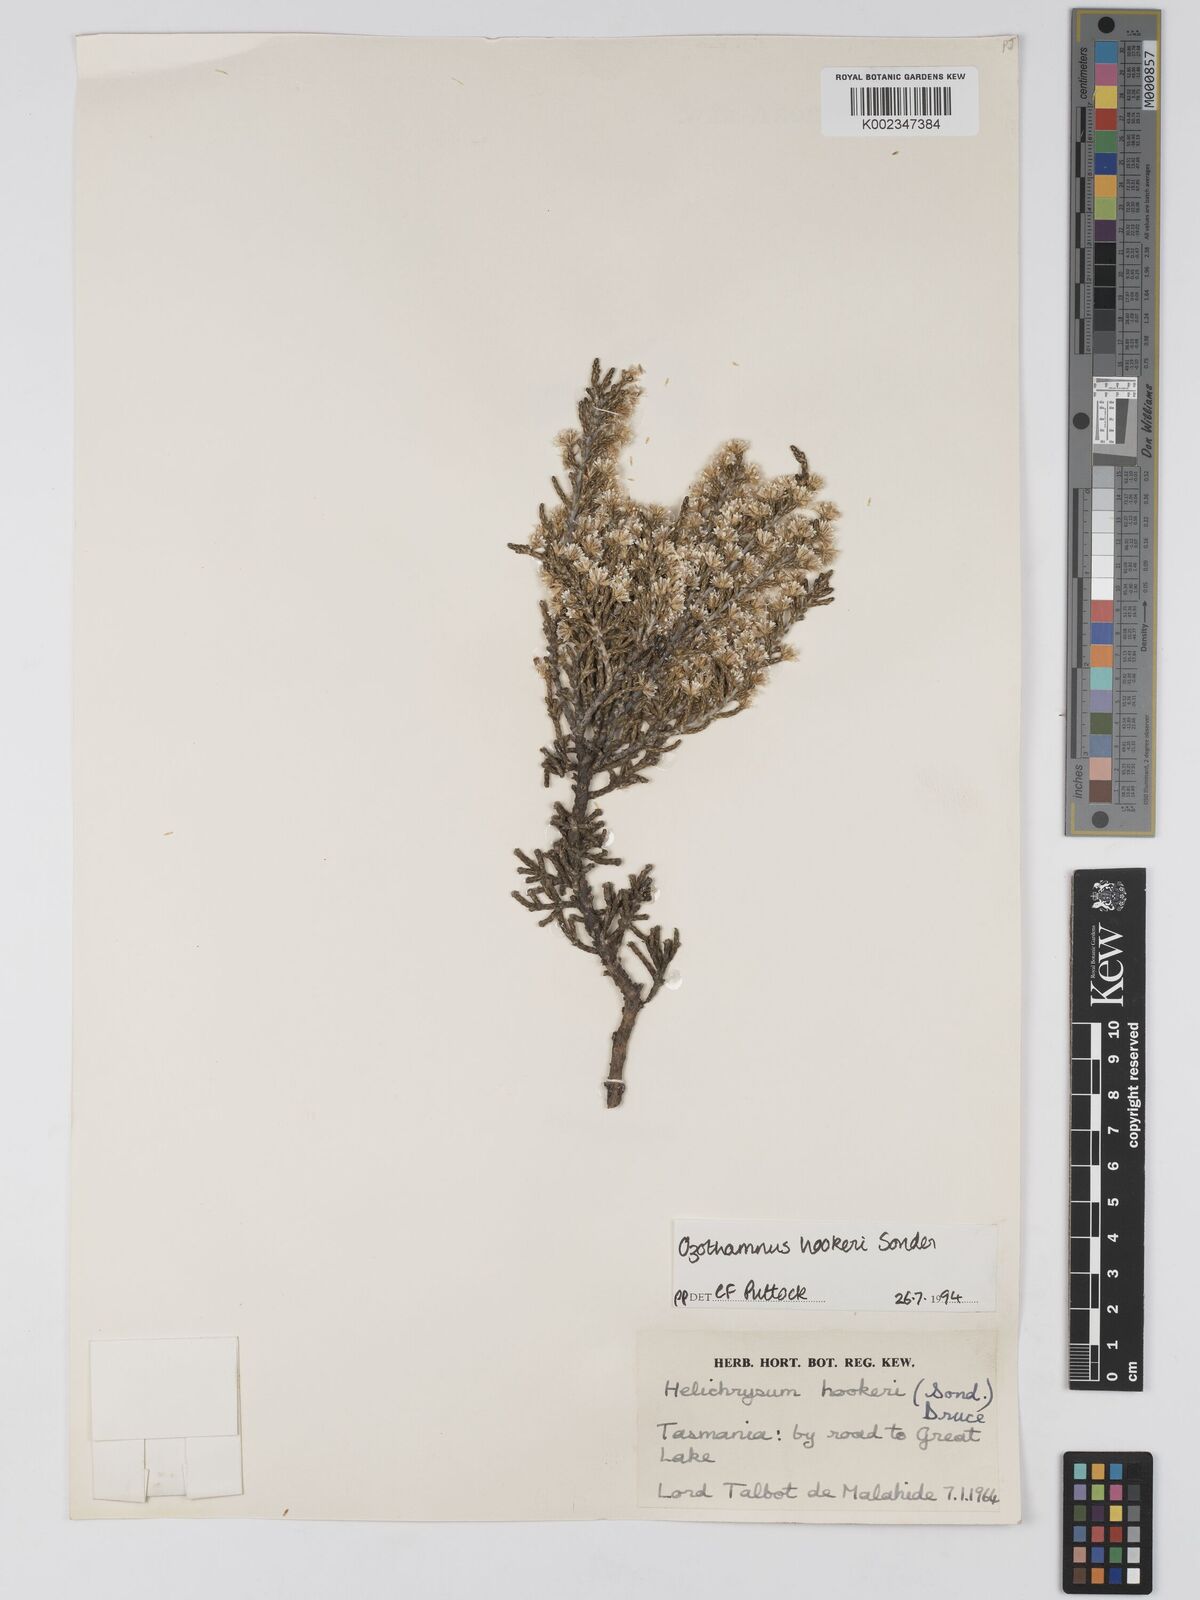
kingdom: Plantae
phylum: Tracheophyta
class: Magnoliopsida
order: Asterales
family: Asteraceae
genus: Ozothamnus
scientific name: Ozothamnus hookeri
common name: Kerosene-bush
